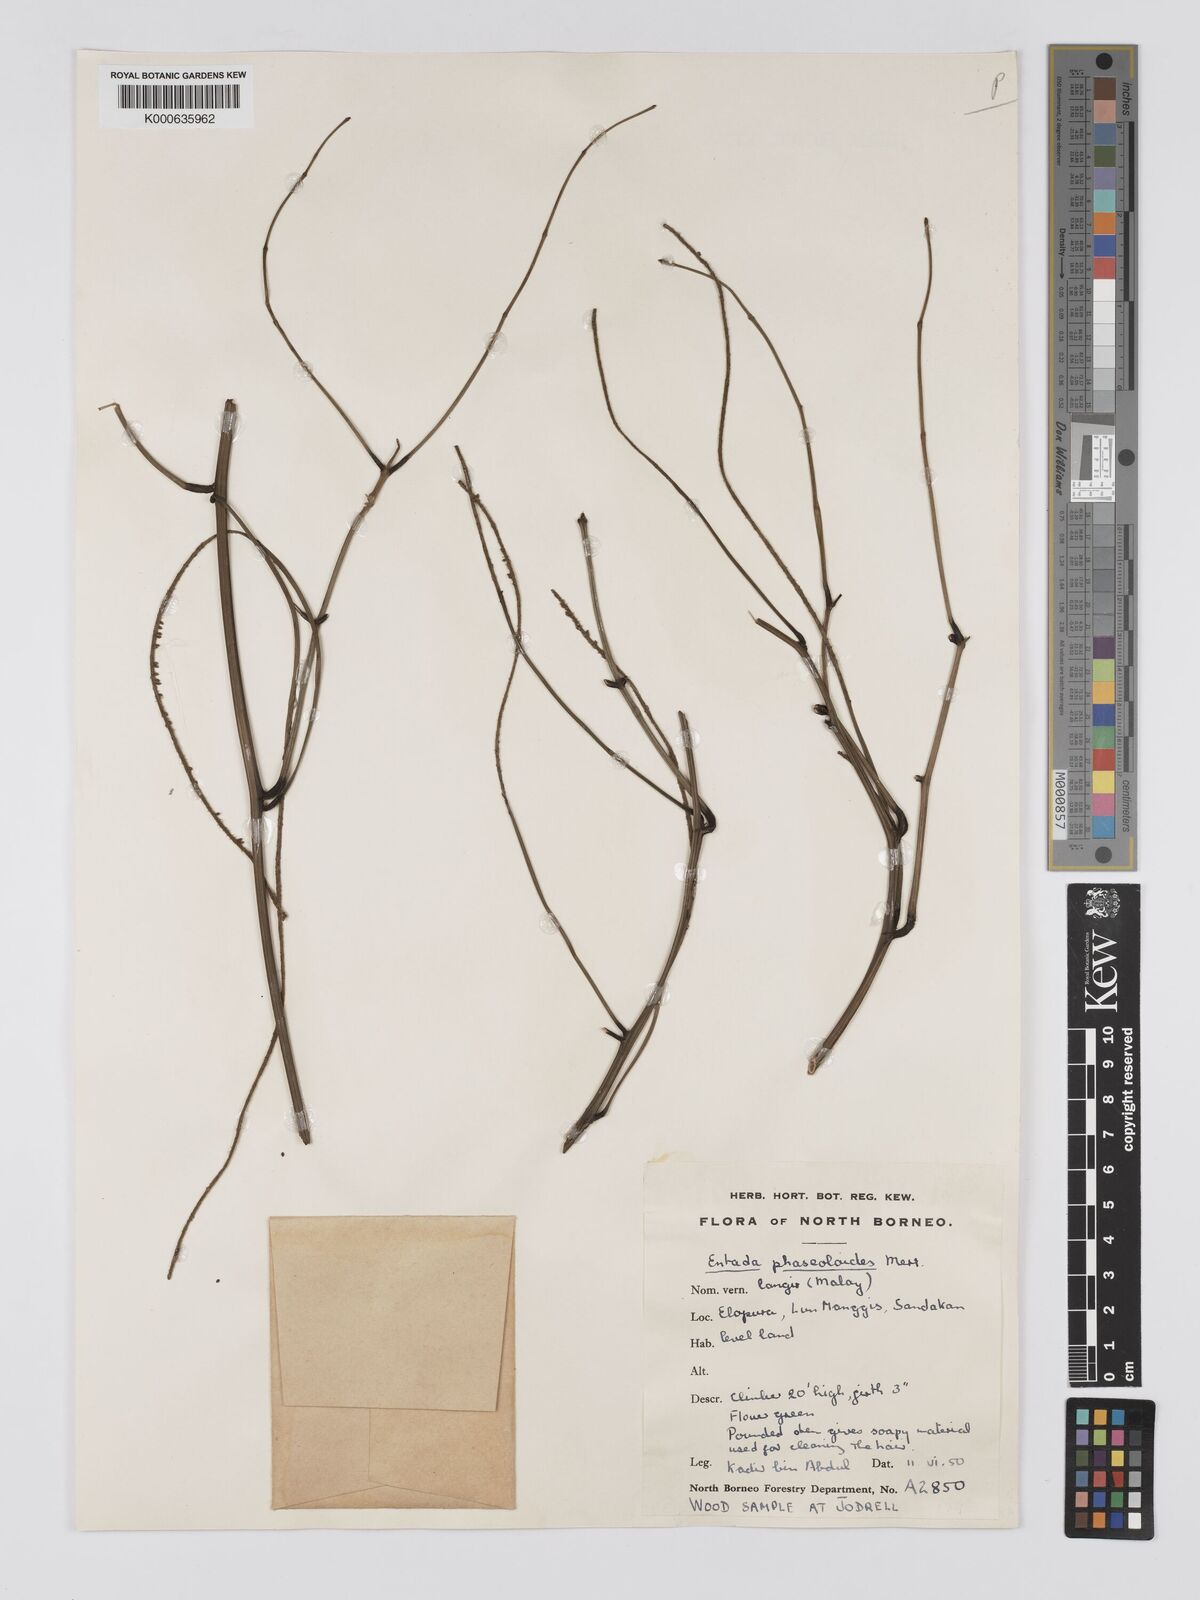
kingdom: Plantae
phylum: Tracheophyta
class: Magnoliopsida
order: Fabales
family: Fabaceae
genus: Entada
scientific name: Entada phaseoloides
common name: Matchbox-bean
